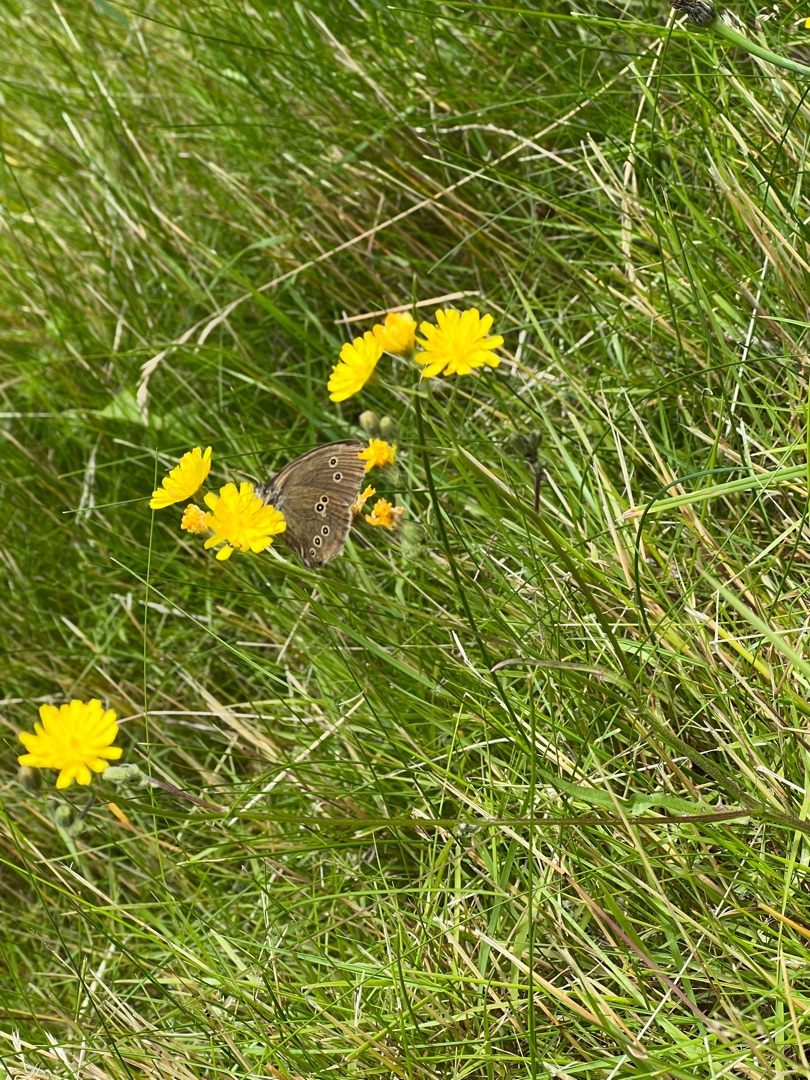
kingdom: Animalia
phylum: Arthropoda
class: Insecta
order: Lepidoptera
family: Nymphalidae
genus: Aphantopus
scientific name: Aphantopus hyperantus
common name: Engrandøje
